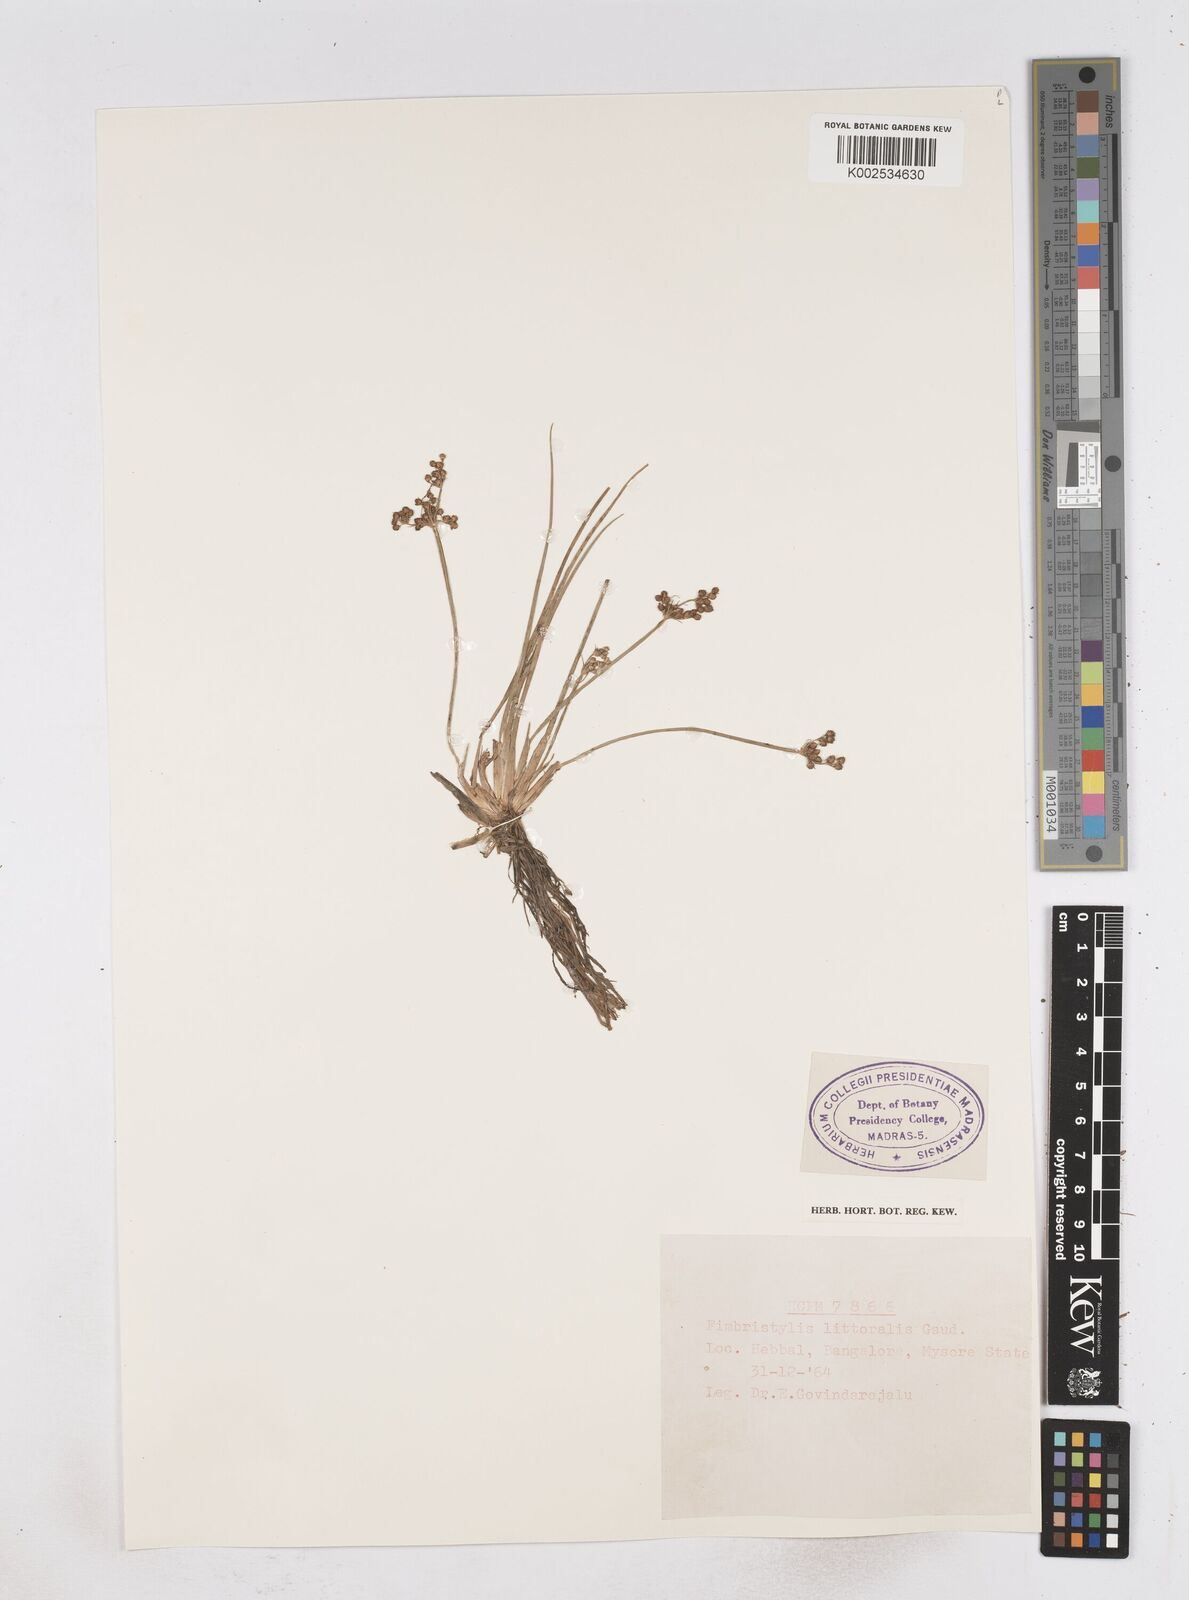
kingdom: Plantae
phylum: Tracheophyta
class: Liliopsida
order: Poales
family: Cyperaceae
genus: Fimbristylis
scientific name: Fimbristylis littoralis
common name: Fimbry
